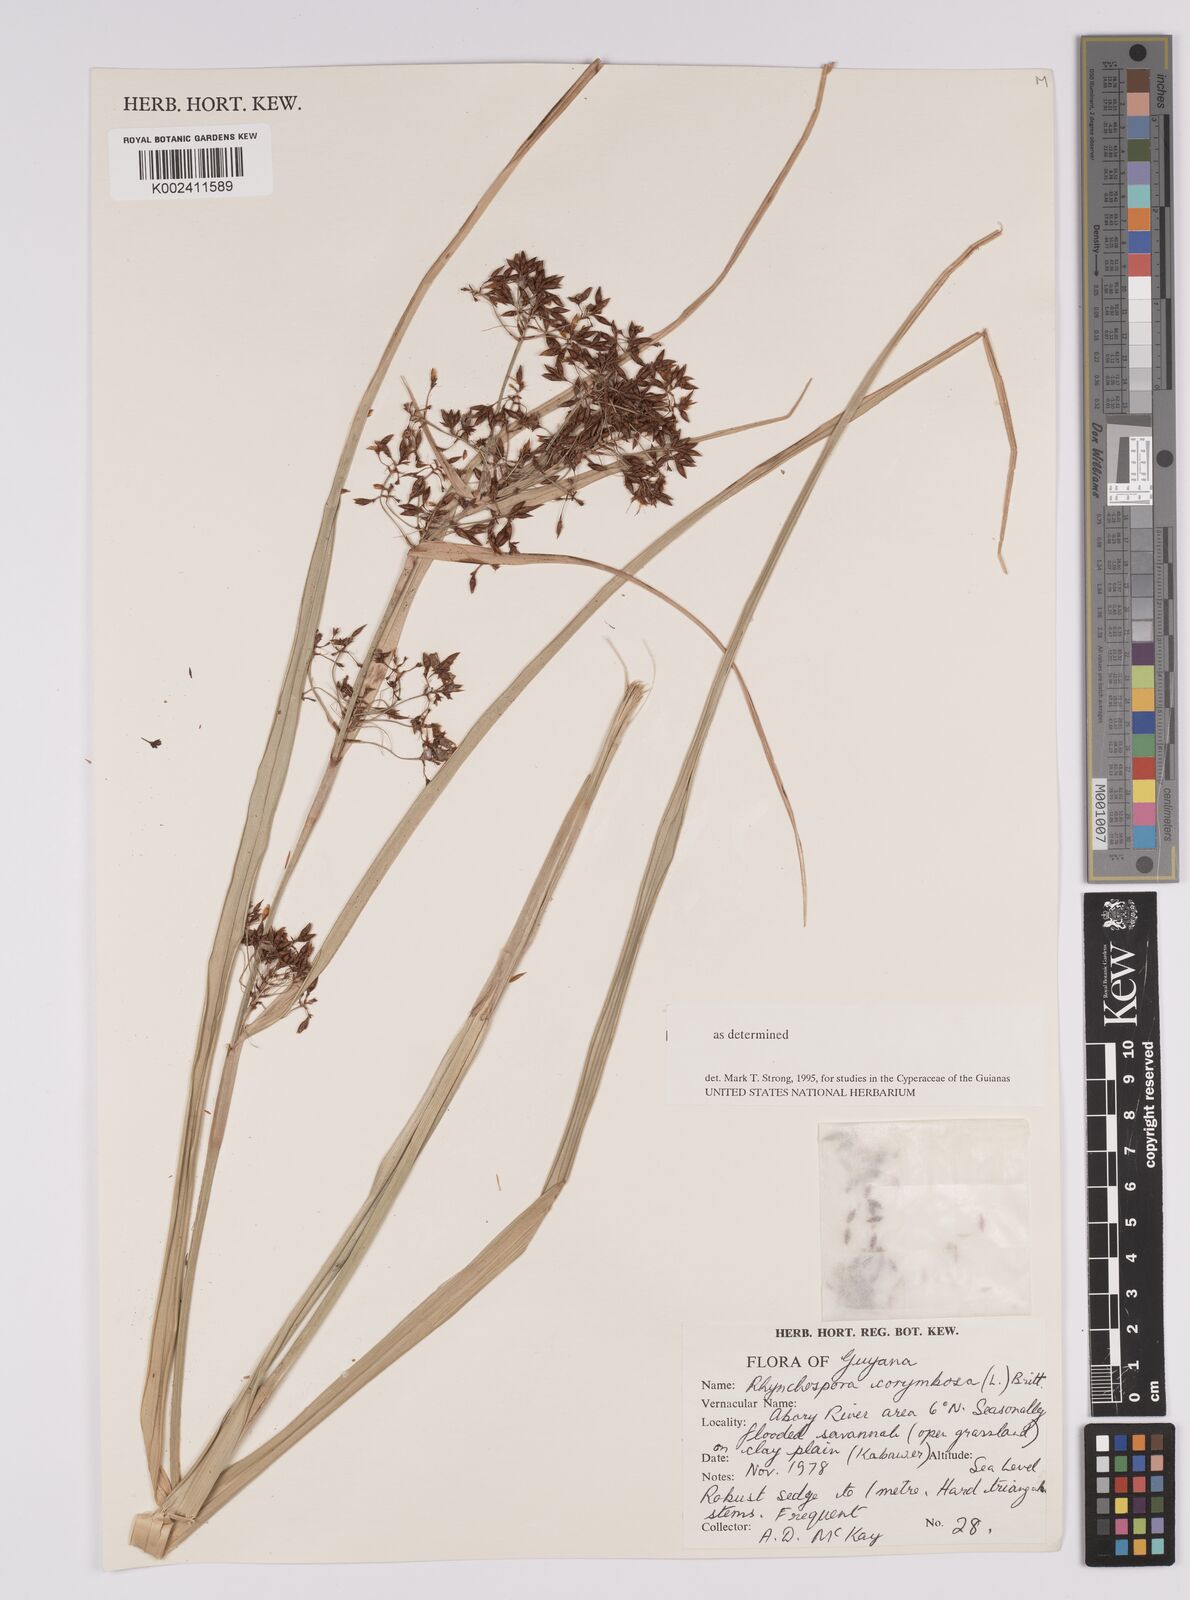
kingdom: Plantae
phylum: Tracheophyta
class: Liliopsida
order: Poales
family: Cyperaceae
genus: Rhynchospora
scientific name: Rhynchospora corymbosa
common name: Golden beak sedge
